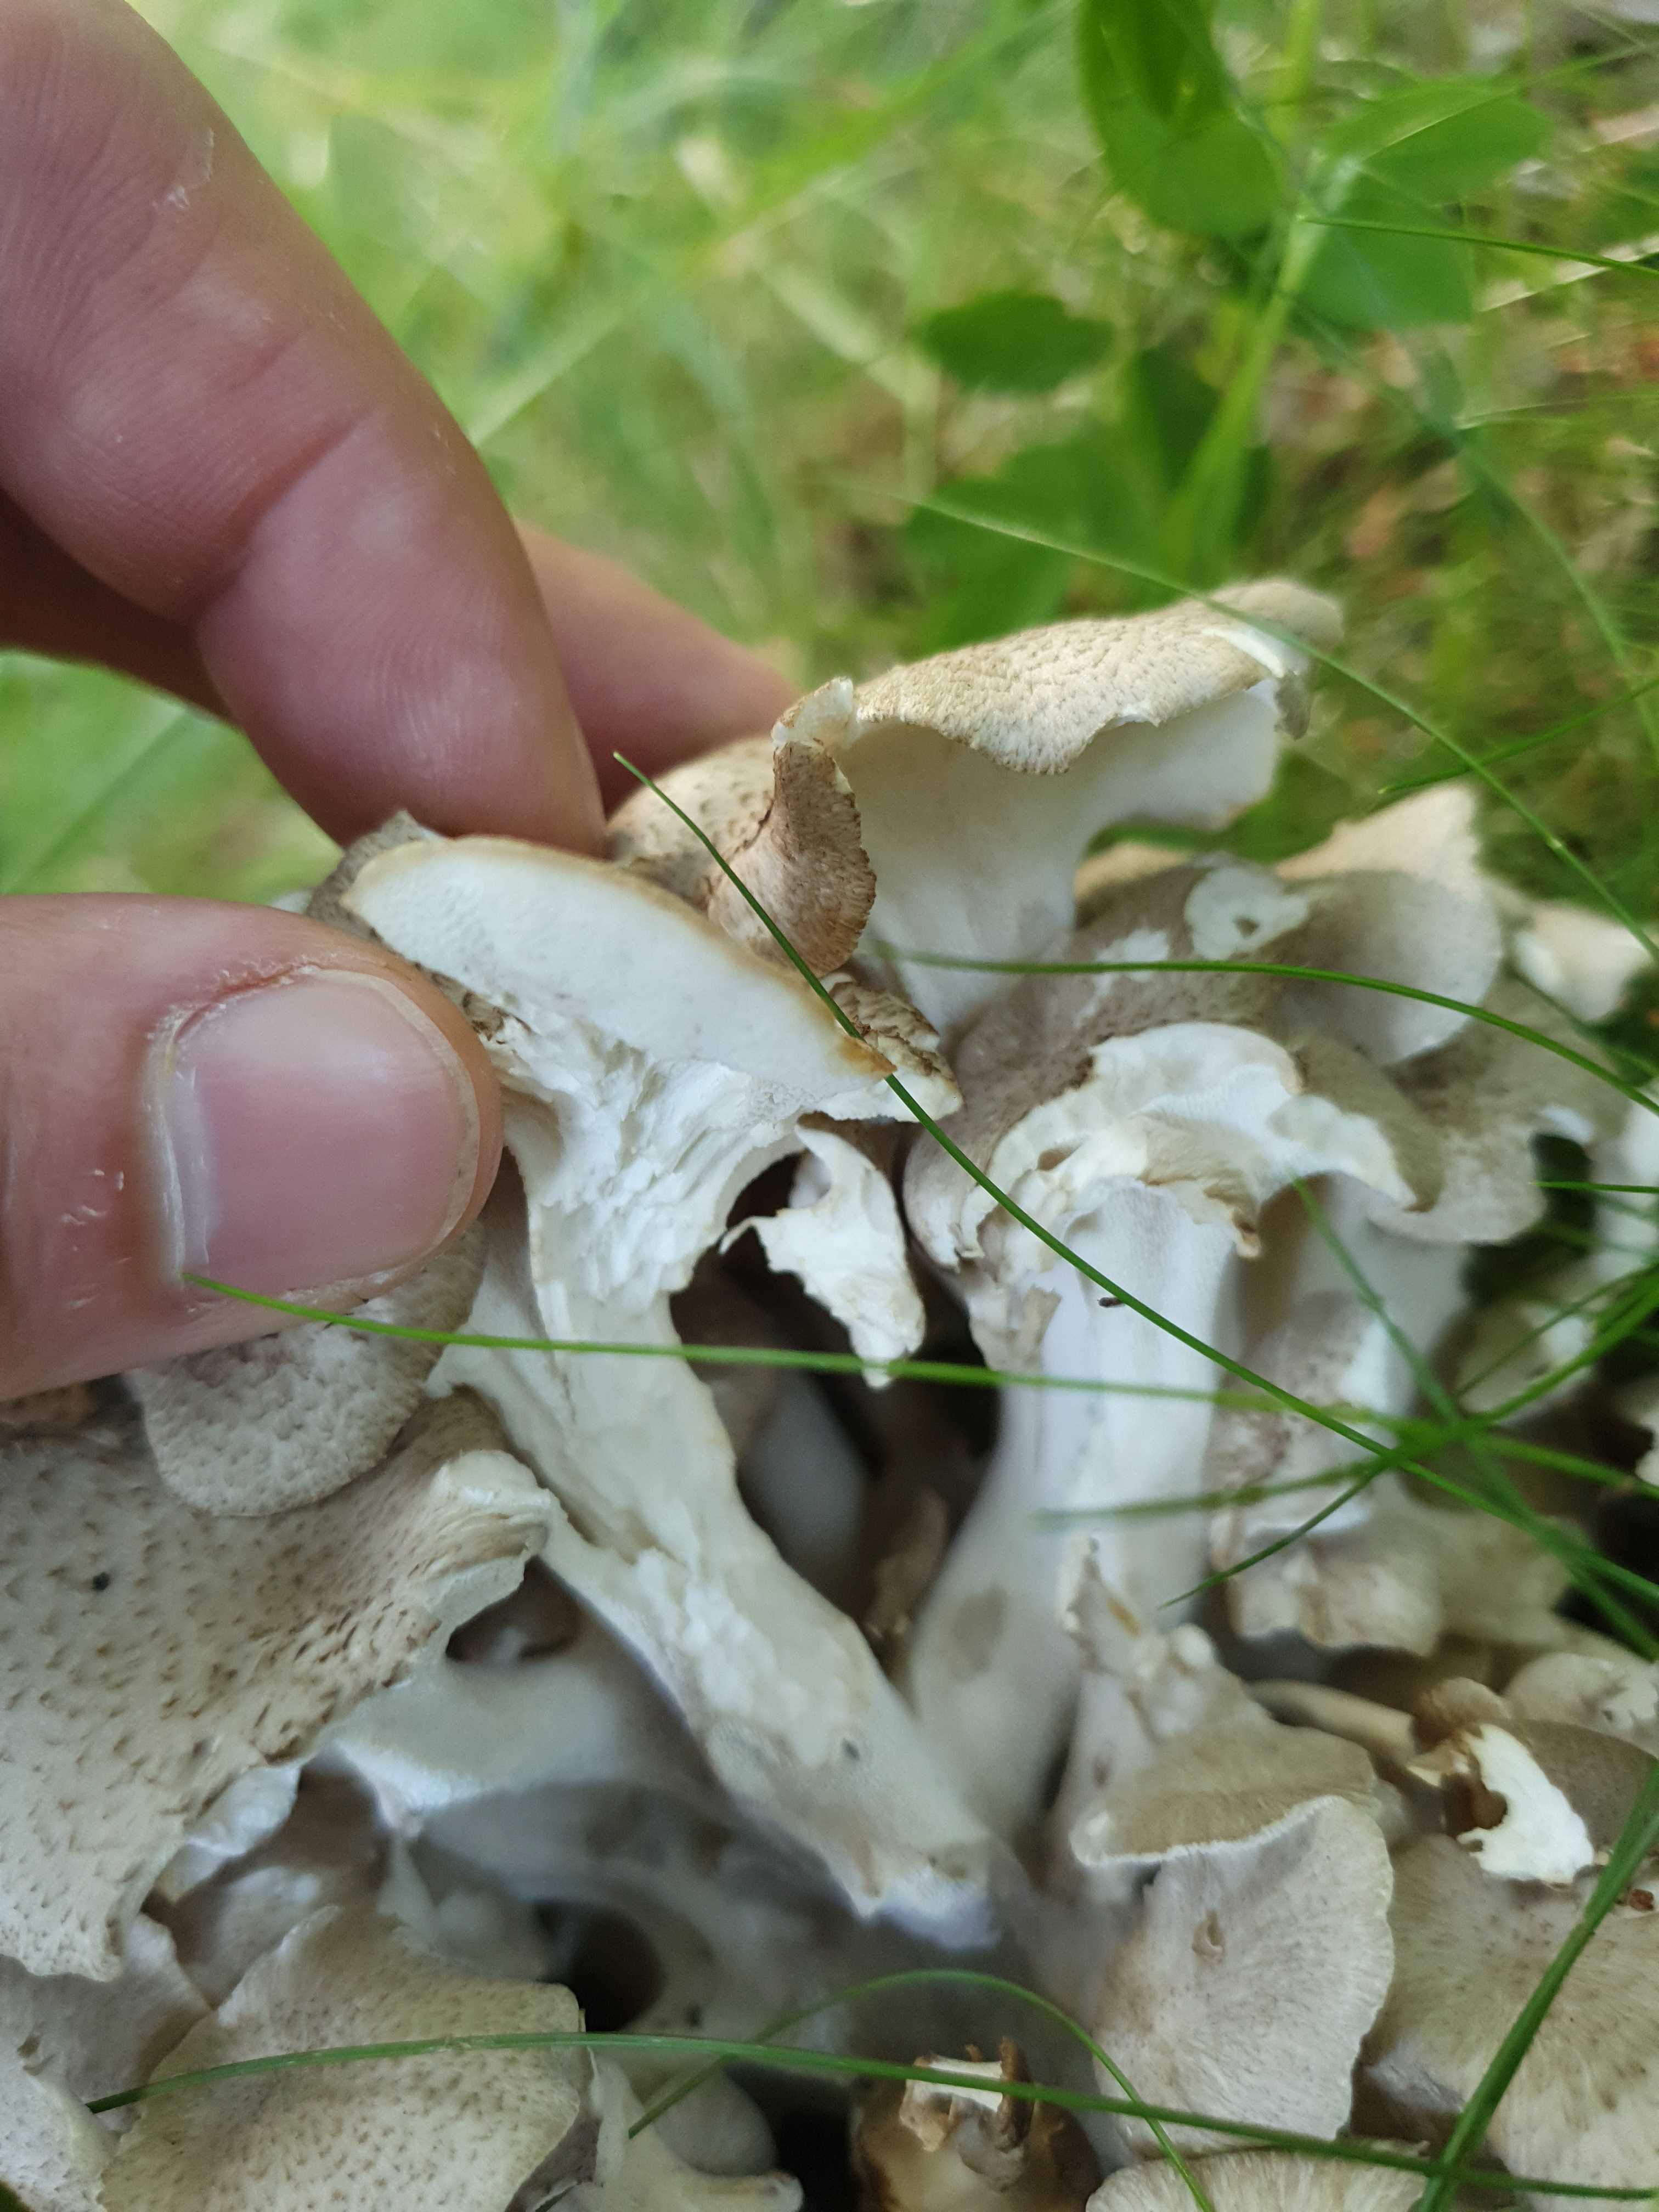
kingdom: Fungi
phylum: Basidiomycota
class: Agaricomycetes
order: Polyporales
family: Polyporaceae
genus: Polyporus
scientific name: Polyporus umbellatus
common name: skærmformet stilkporesvamp
